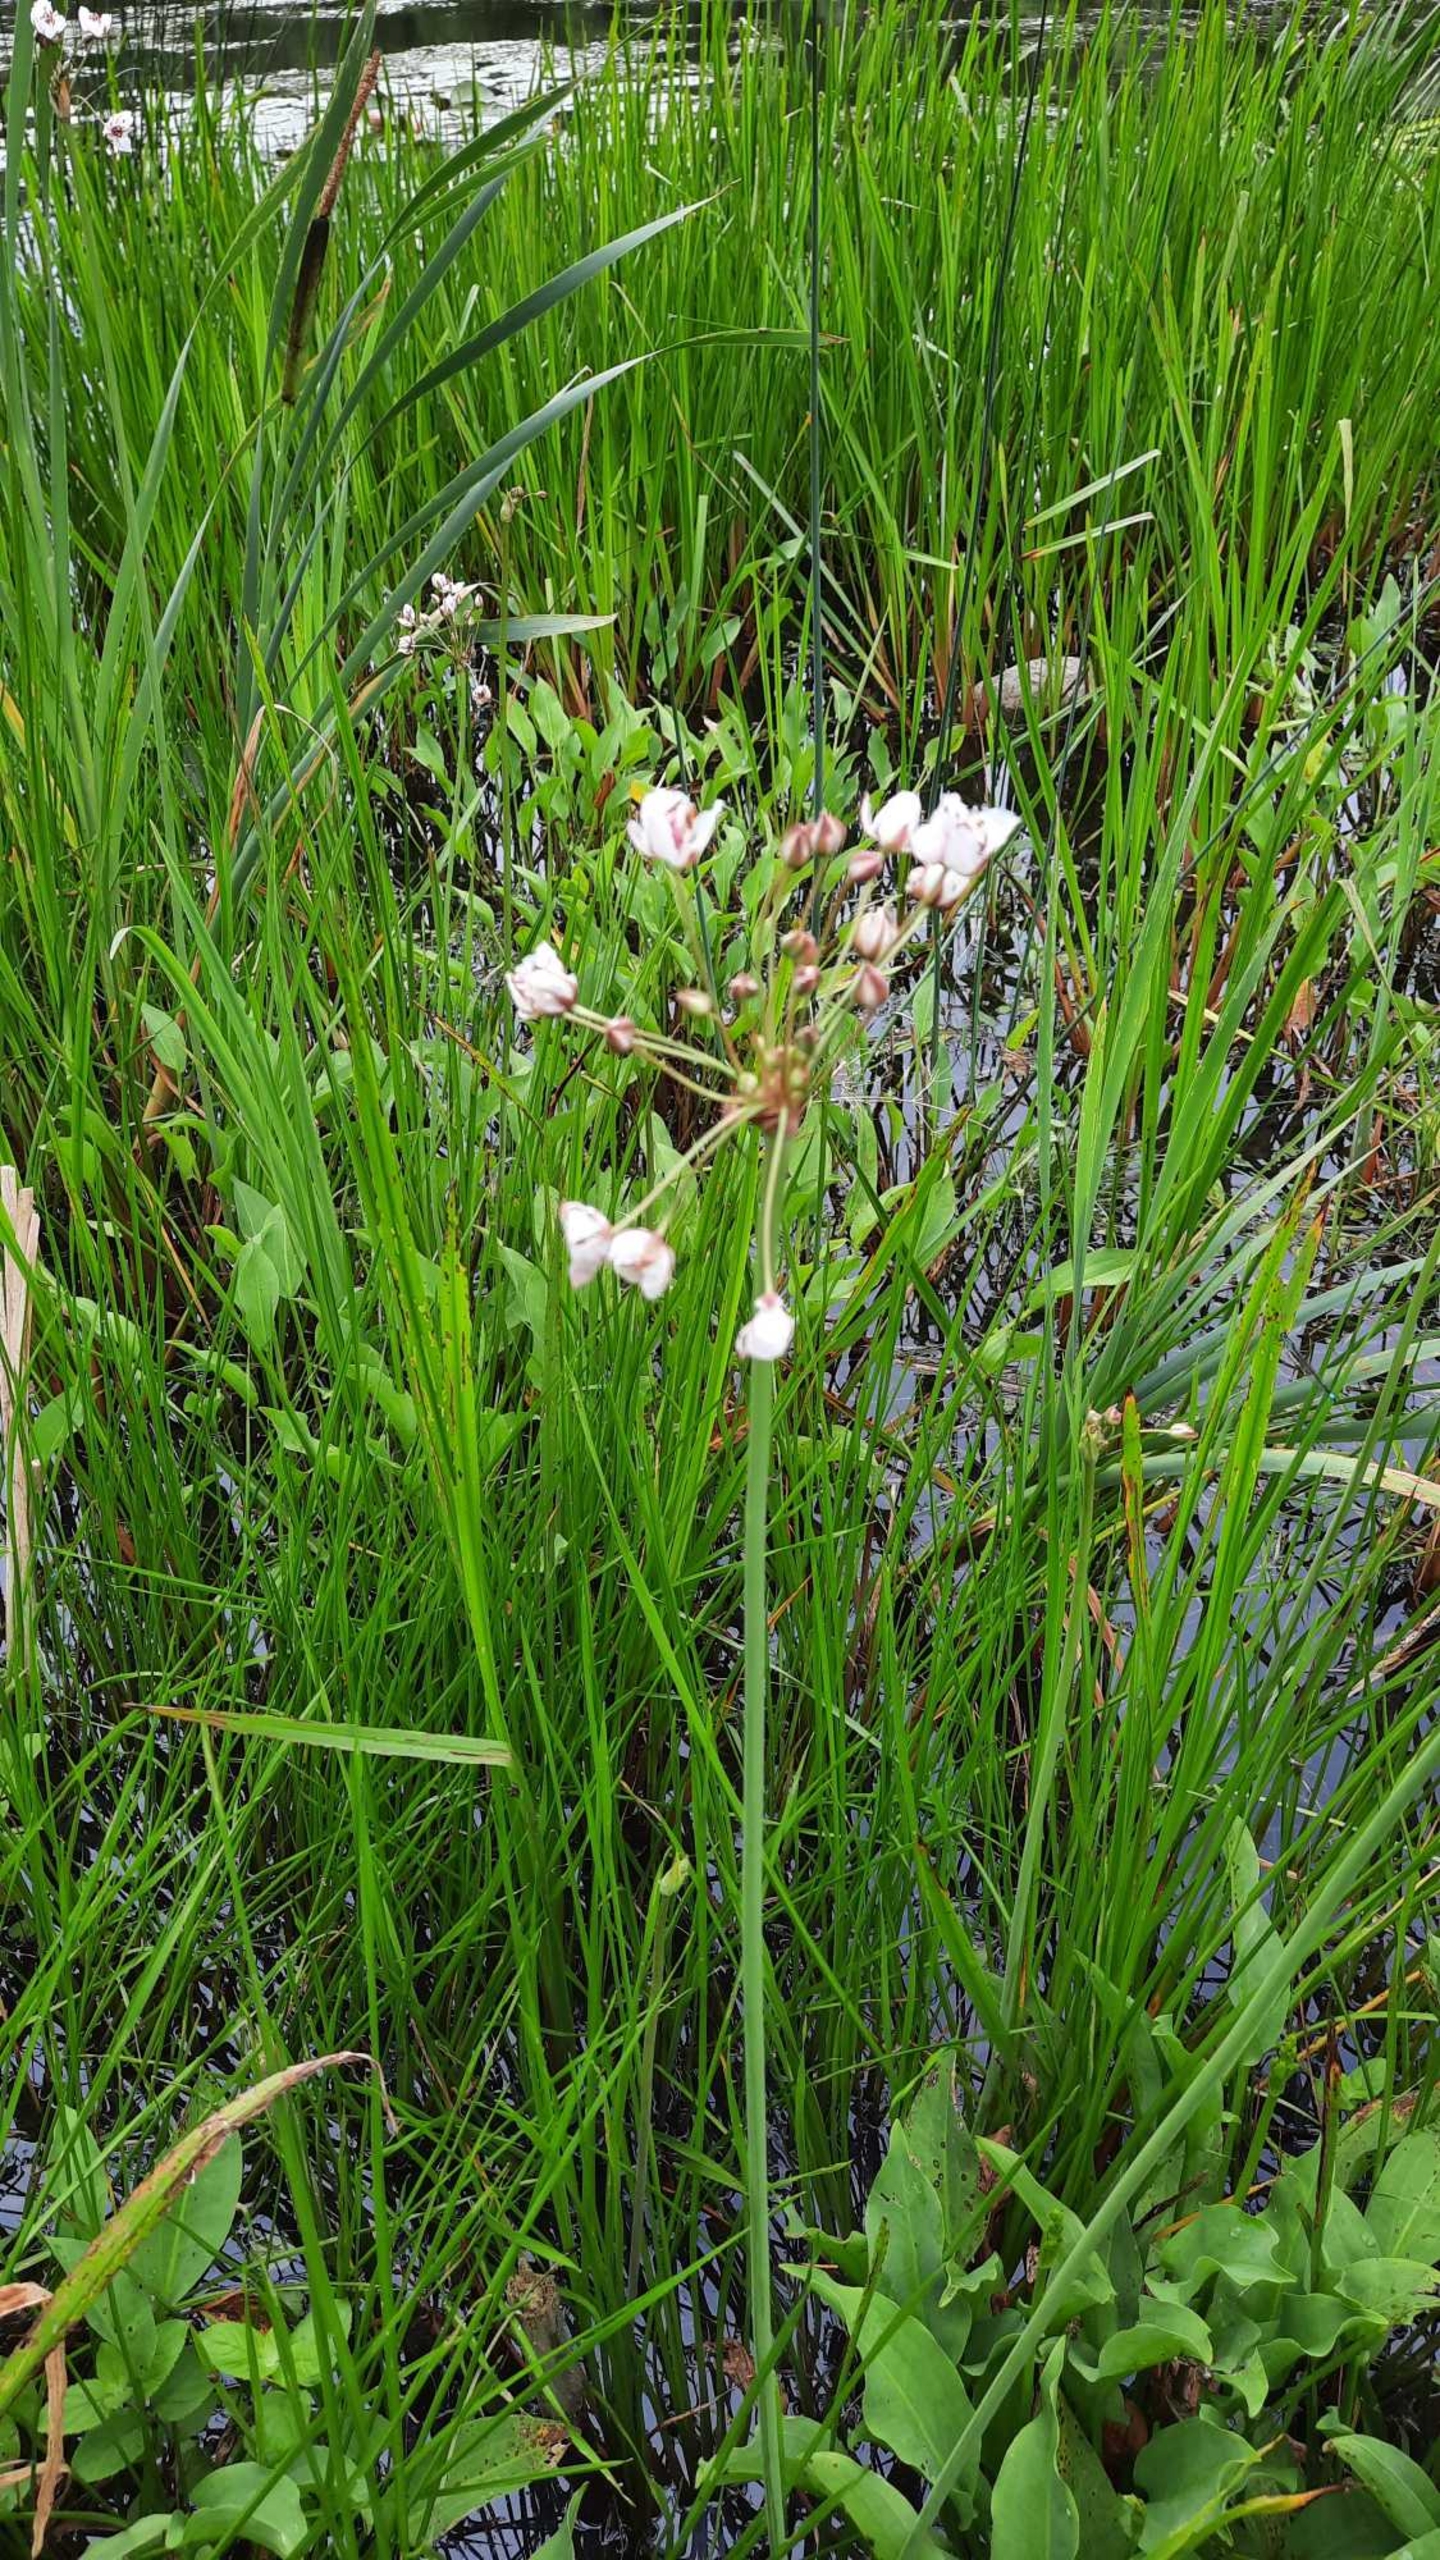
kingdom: Plantae
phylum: Tracheophyta
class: Liliopsida
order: Alismatales
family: Butomaceae
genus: Butomus
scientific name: Butomus umbellatus
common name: Brudelys
